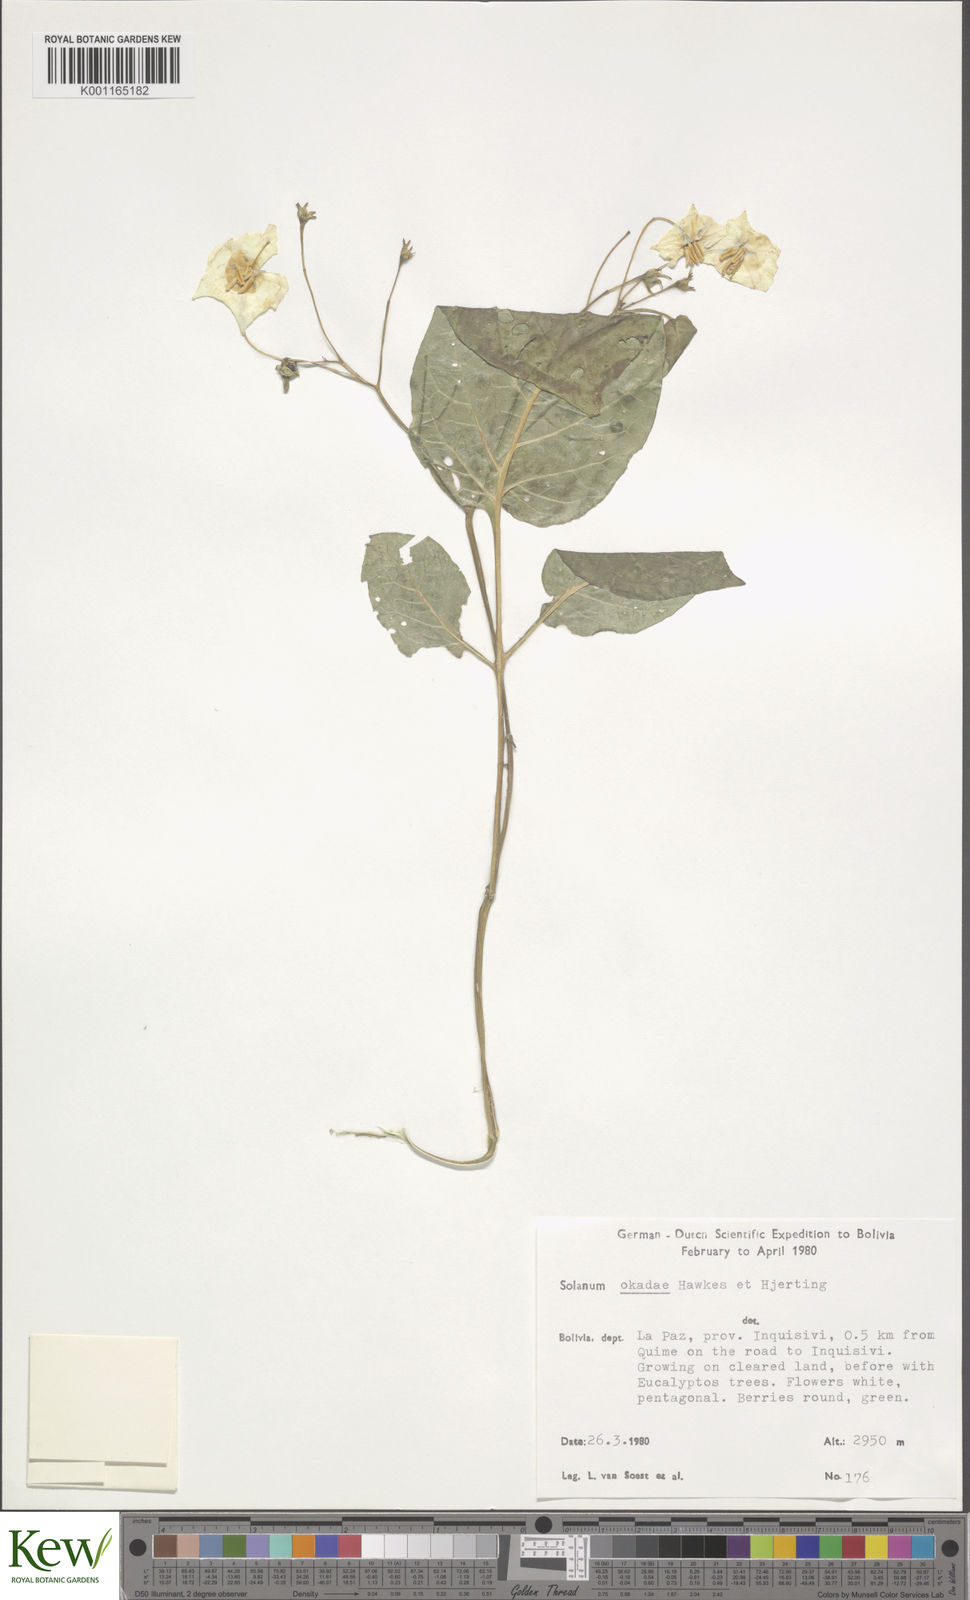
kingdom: Plantae
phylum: Tracheophyta
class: Magnoliopsida
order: Solanales
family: Solanaceae
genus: Solanum
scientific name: Solanum okadae
